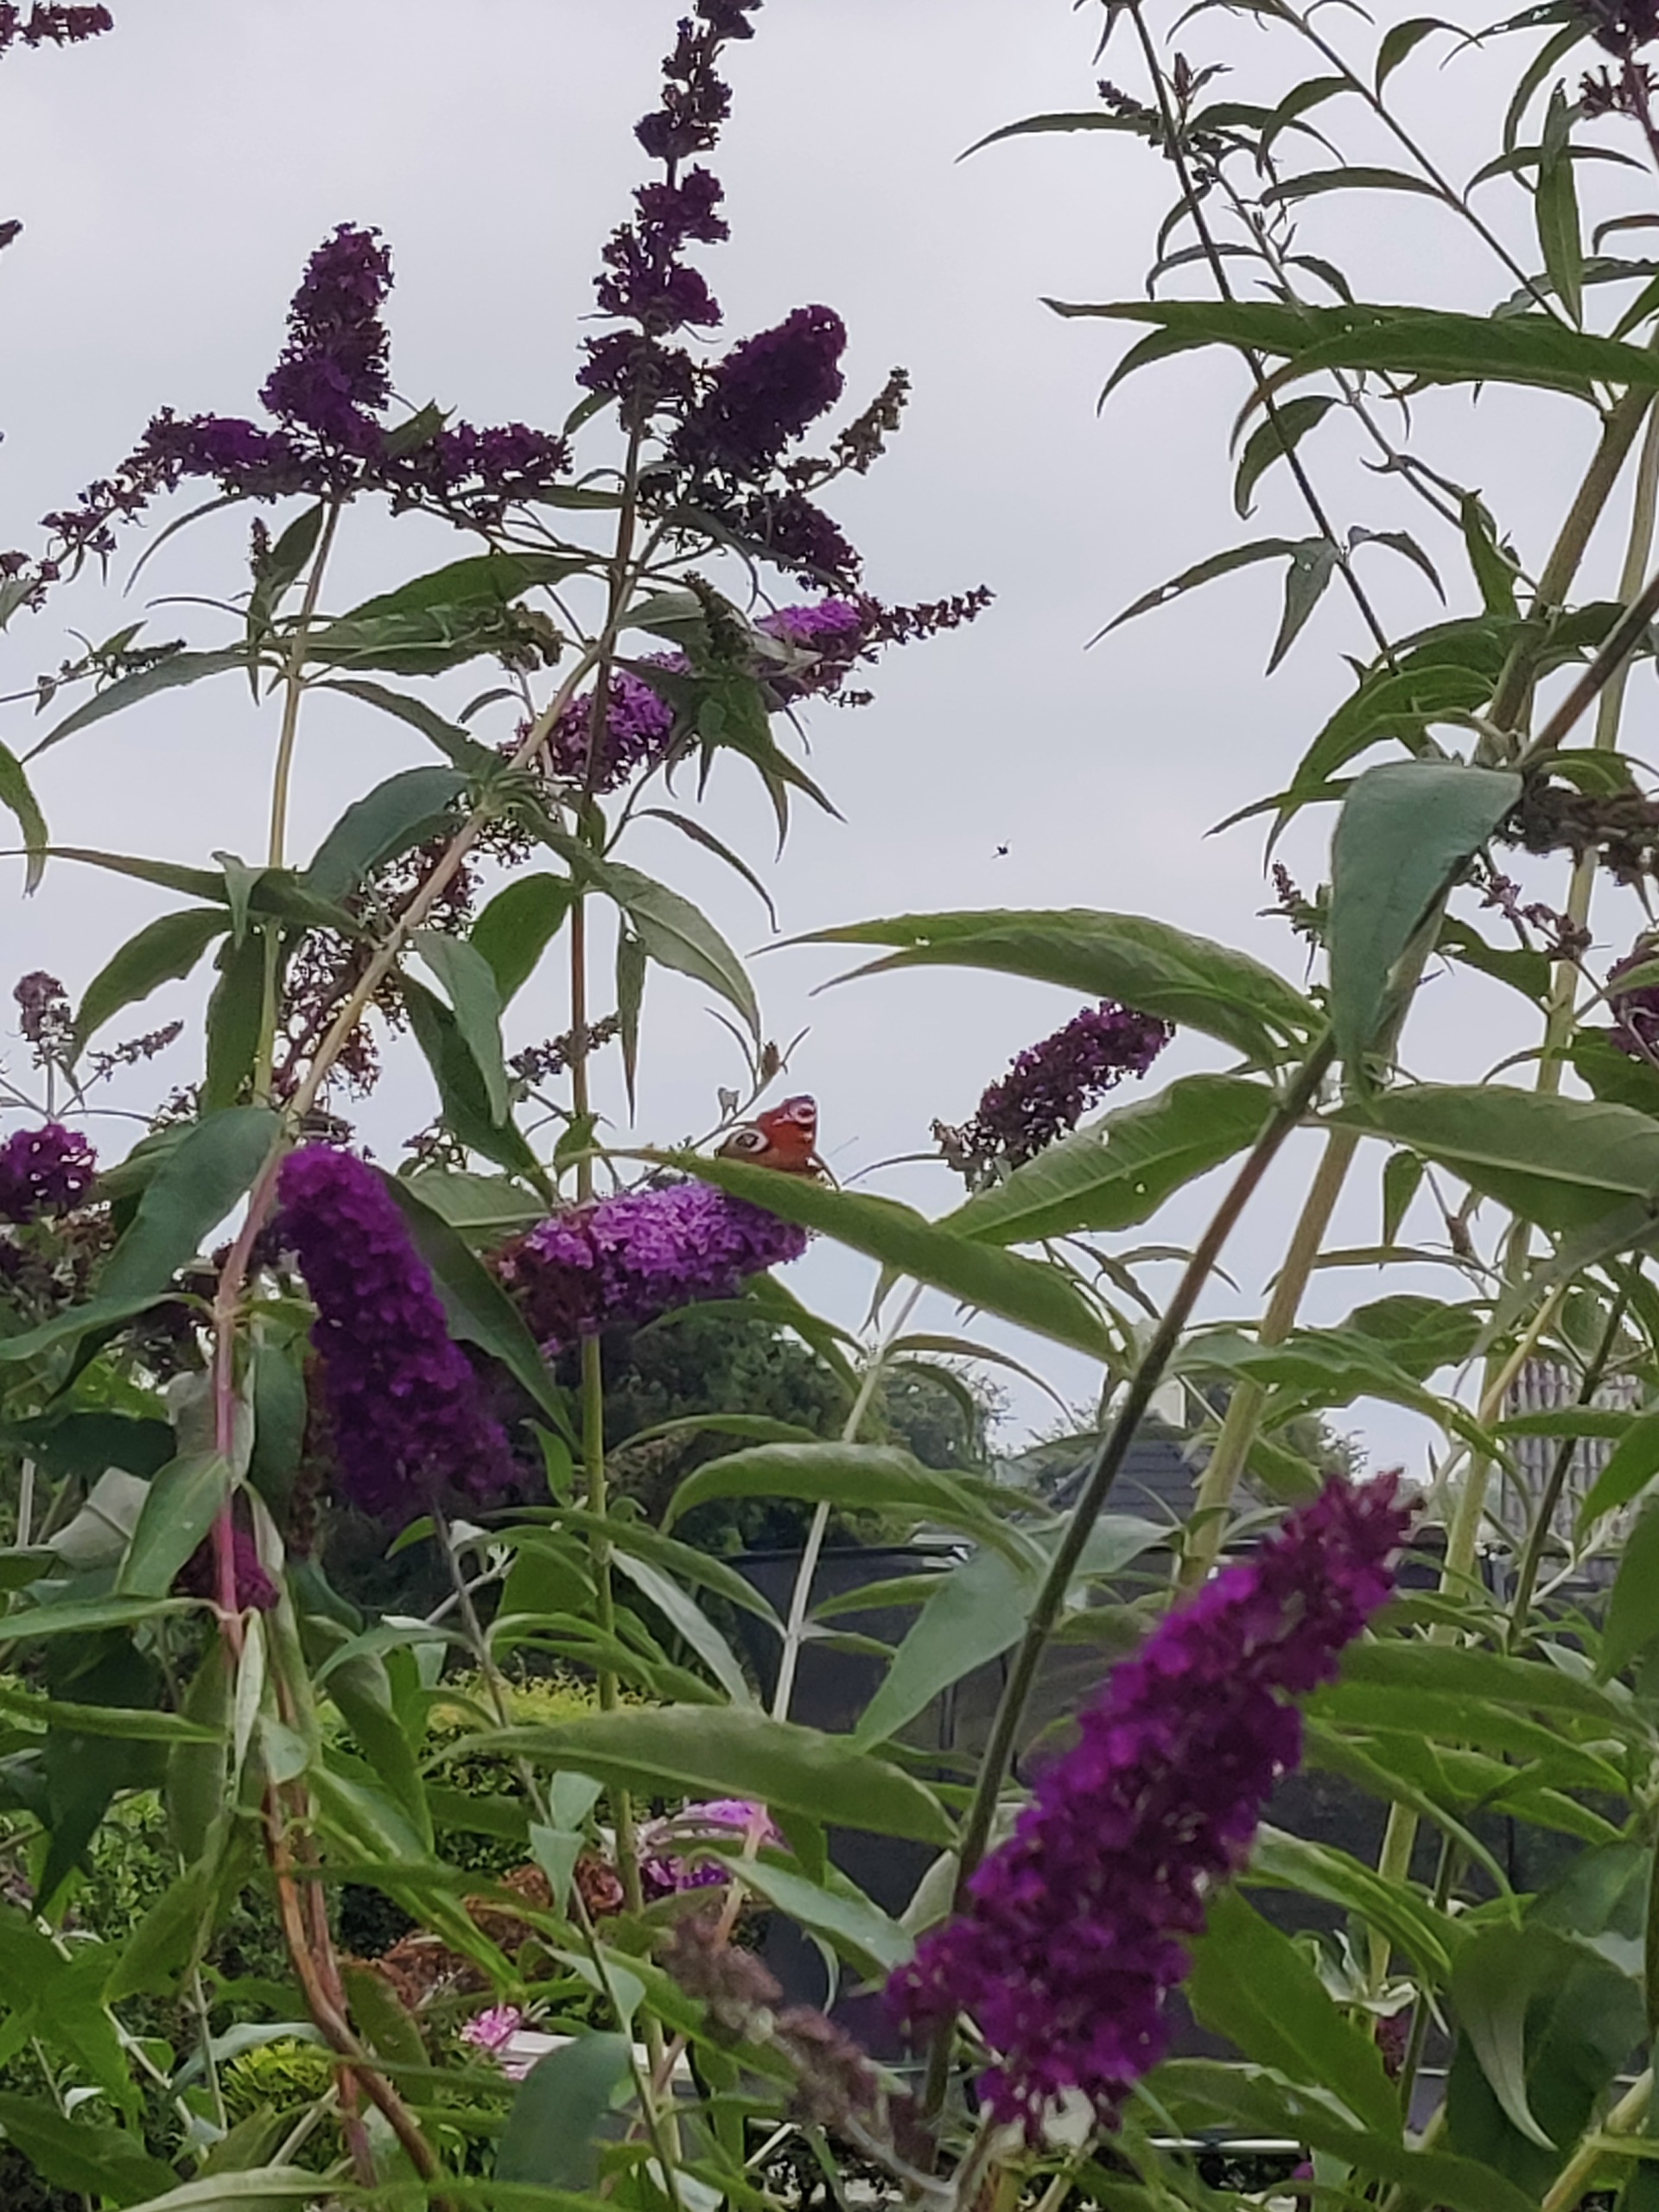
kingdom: Animalia
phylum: Arthropoda
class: Insecta
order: Lepidoptera
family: Nymphalidae
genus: Aglais
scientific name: Aglais io
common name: Dagpåfugleøje
